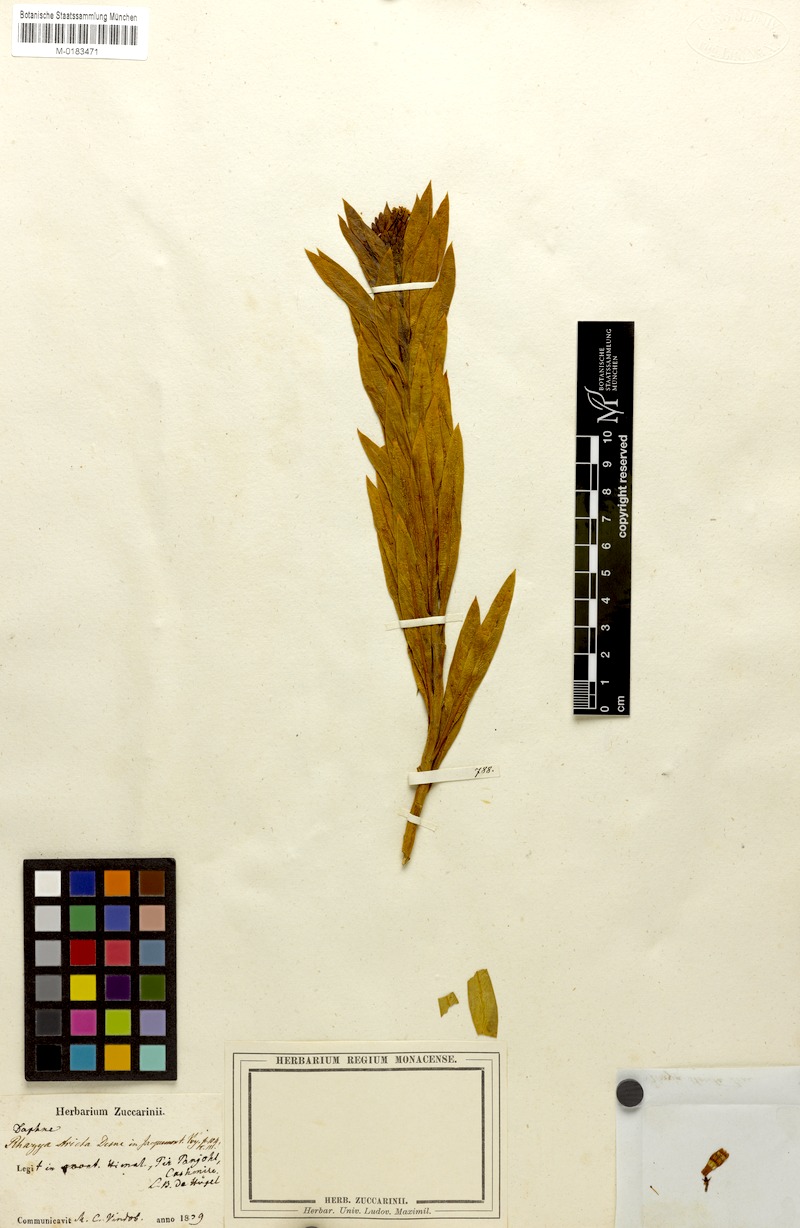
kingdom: Plantae
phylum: Tracheophyta
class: Magnoliopsida
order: Gentianales
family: Apocynaceae
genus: Rhazya
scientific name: Rhazya stricta
